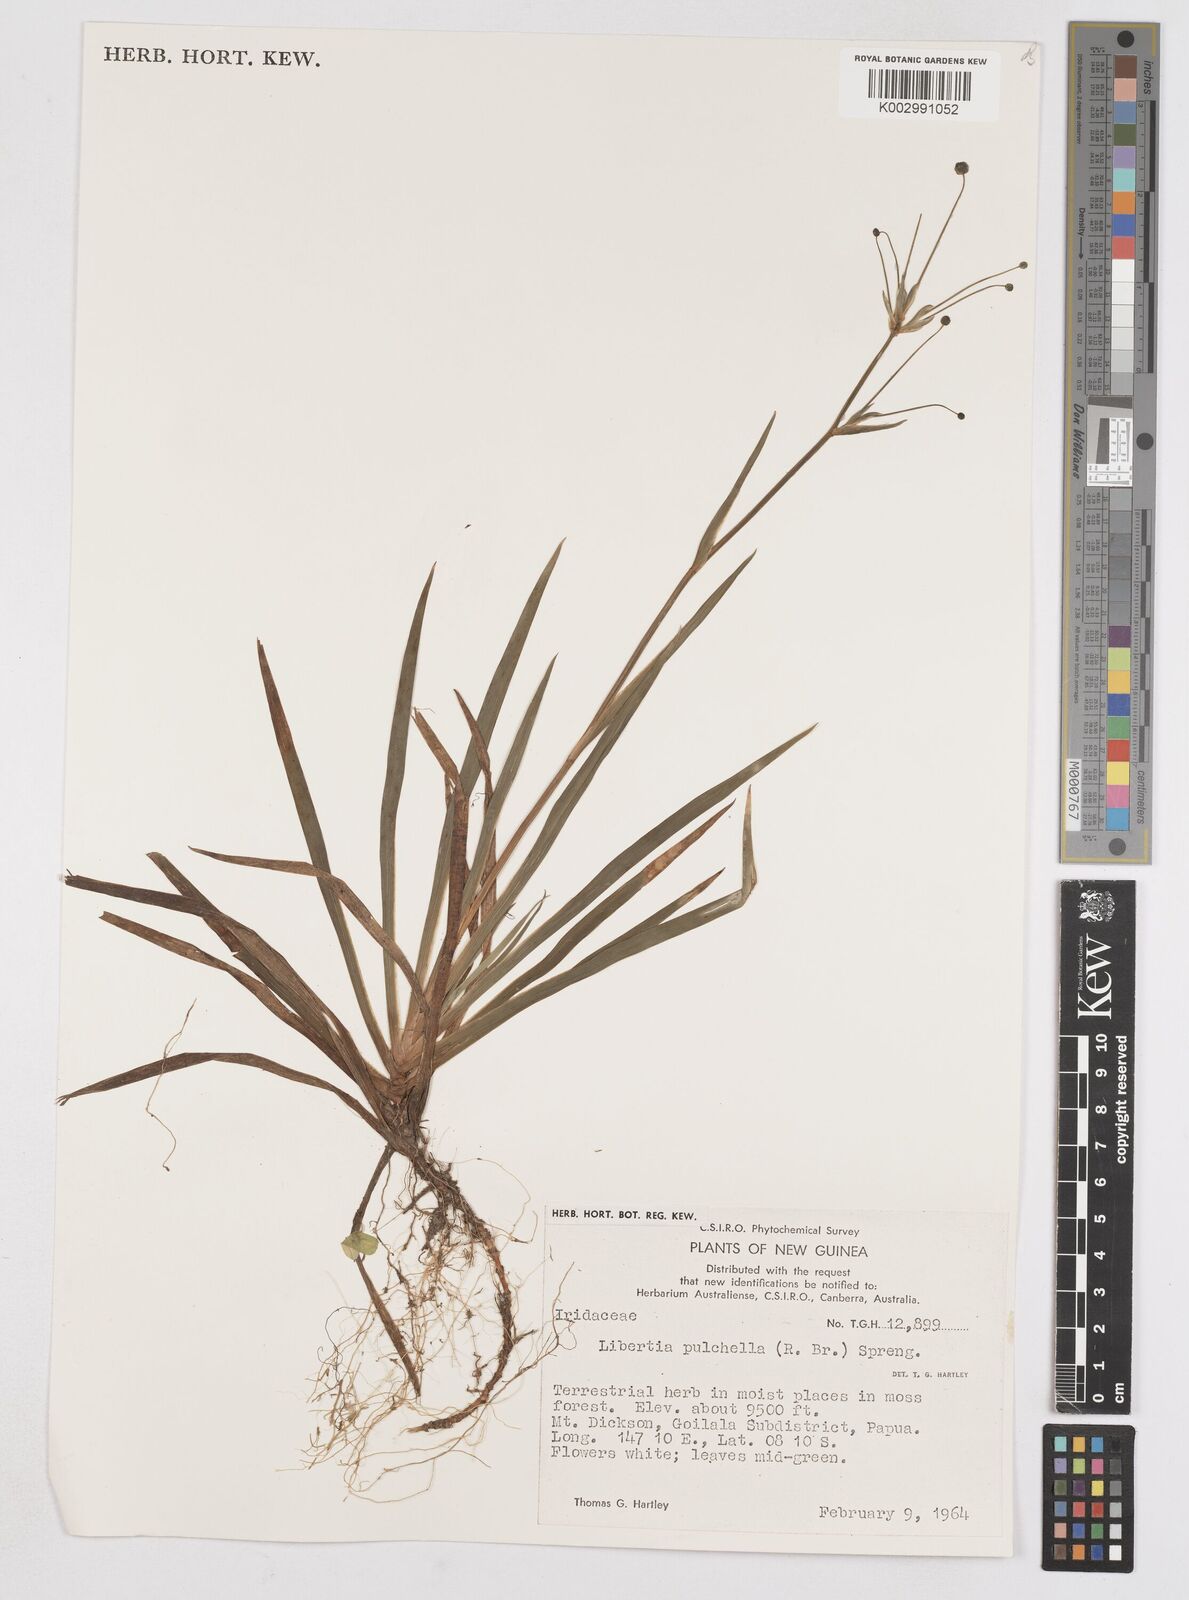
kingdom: Plantae
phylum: Tracheophyta
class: Liliopsida
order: Asparagales
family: Iridaceae
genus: Libertia
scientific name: Libertia pulchella
